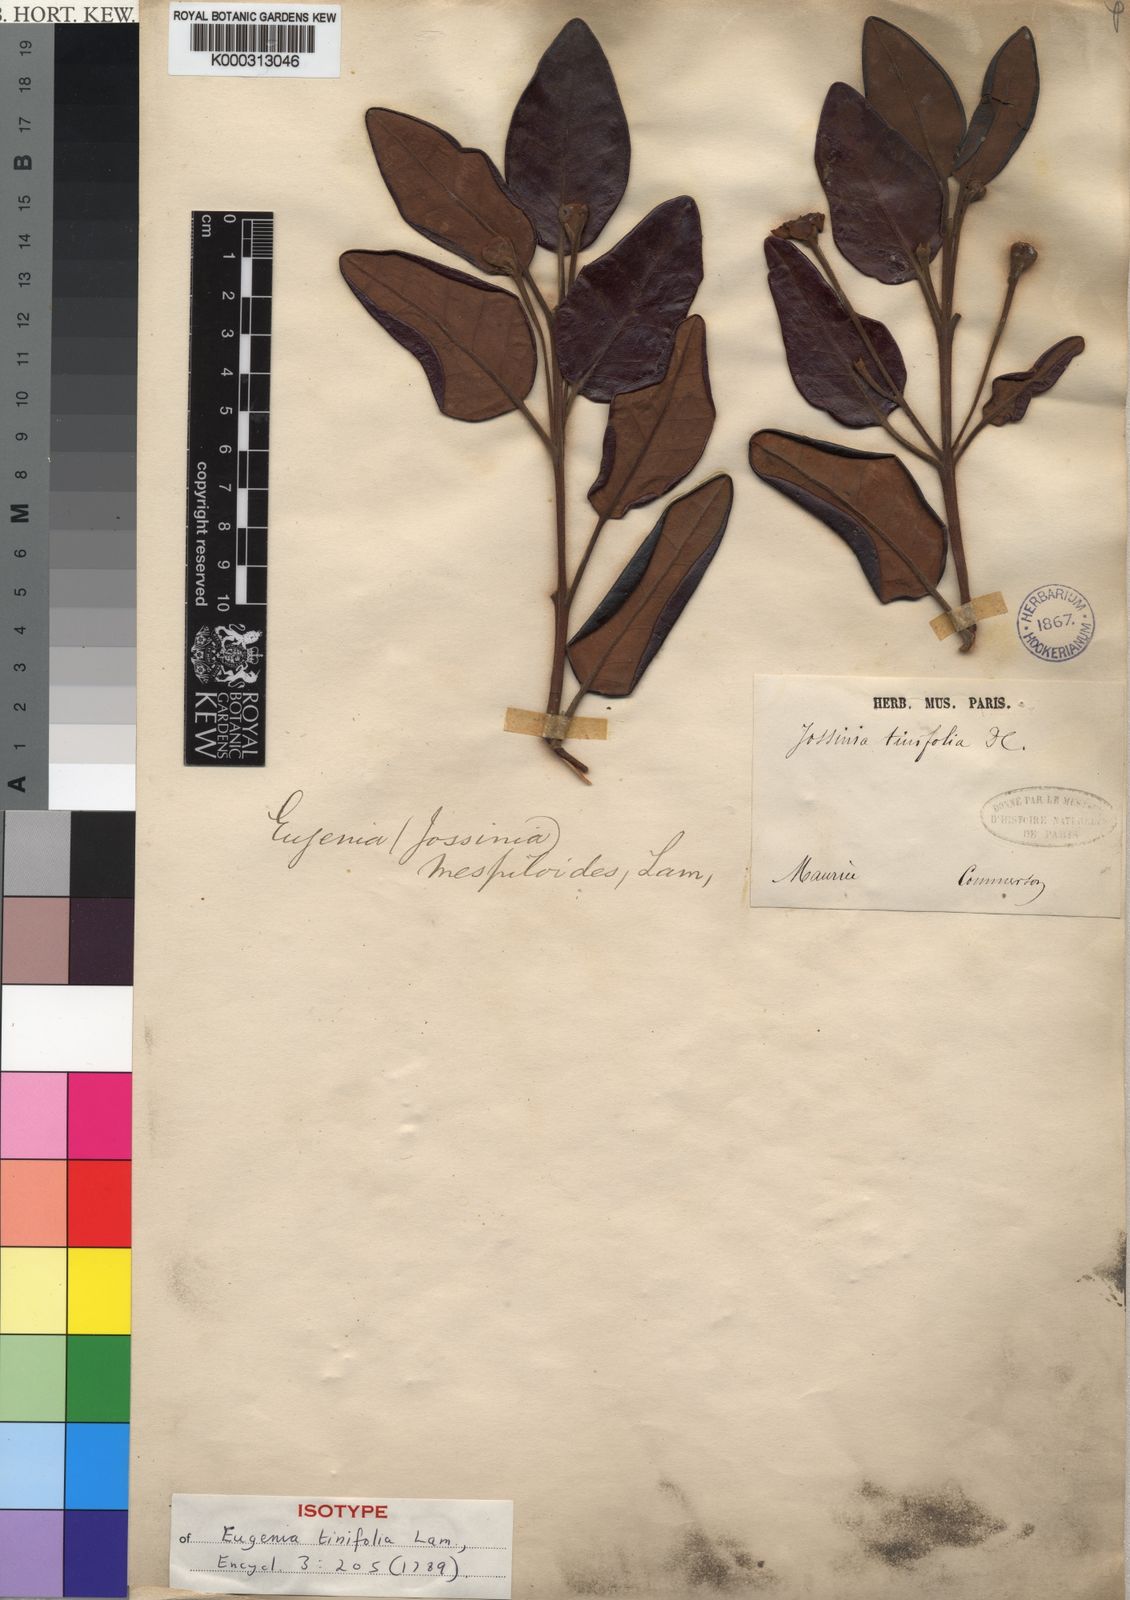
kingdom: Plantae
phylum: Tracheophyta
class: Magnoliopsida
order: Myrtales
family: Myrtaceae
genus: Eugenia
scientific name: Eugenia tinifolia
